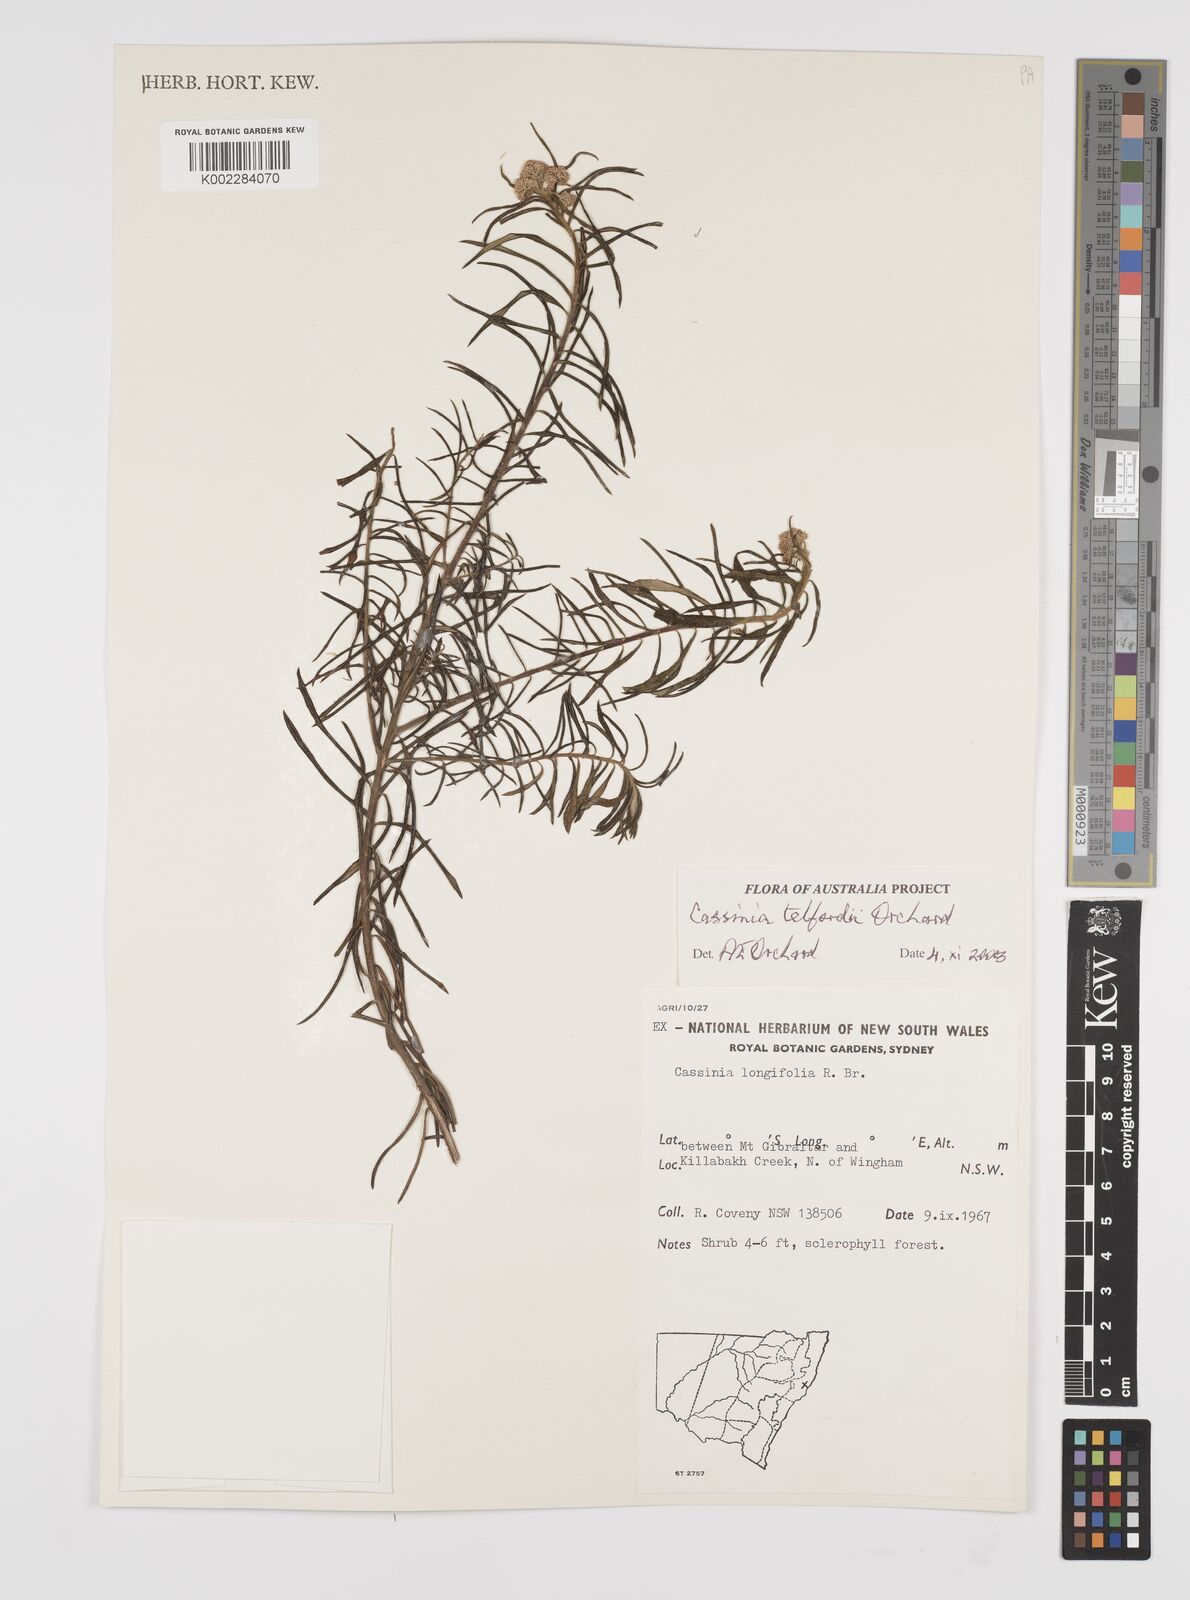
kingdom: Plantae
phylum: Tracheophyta
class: Magnoliopsida
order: Asterales
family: Asteraceae
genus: Cassinia
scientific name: Cassinia telfordii
